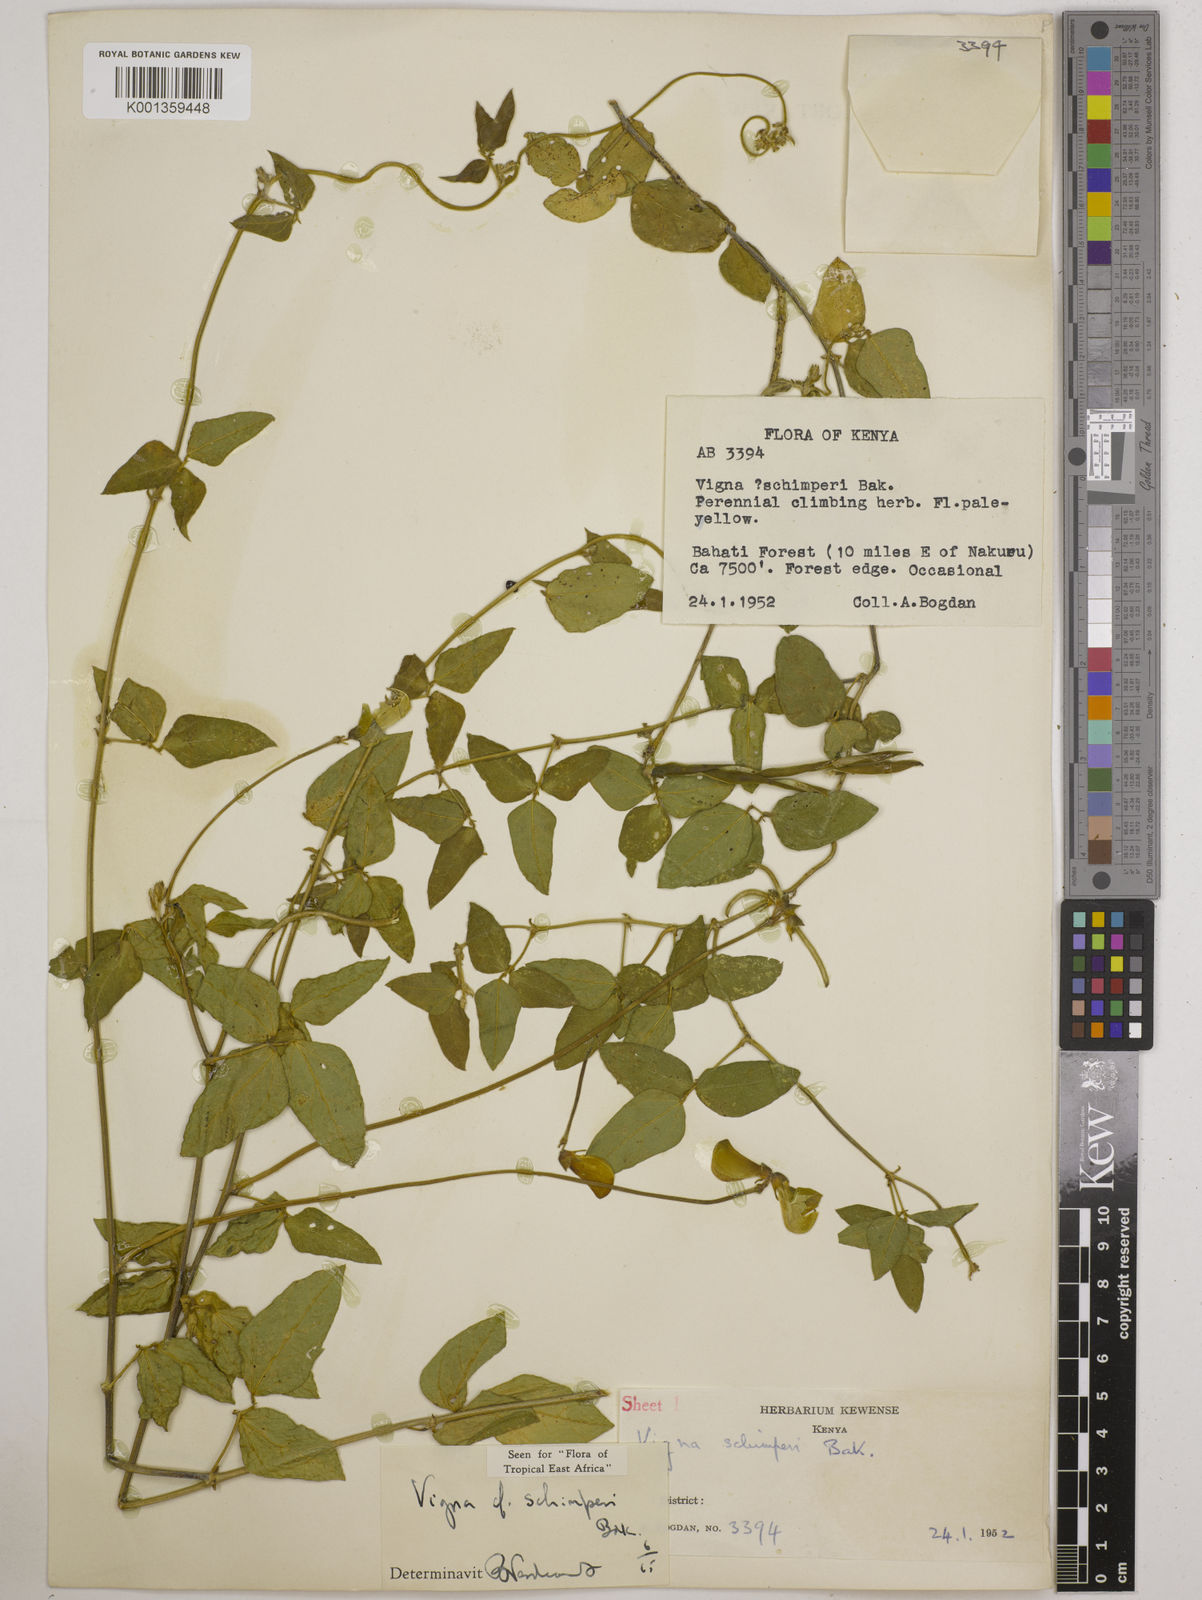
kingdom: Plantae
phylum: Tracheophyta
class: Magnoliopsida
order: Fabales
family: Fabaceae
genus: Vigna
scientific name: Vigna schimperi
